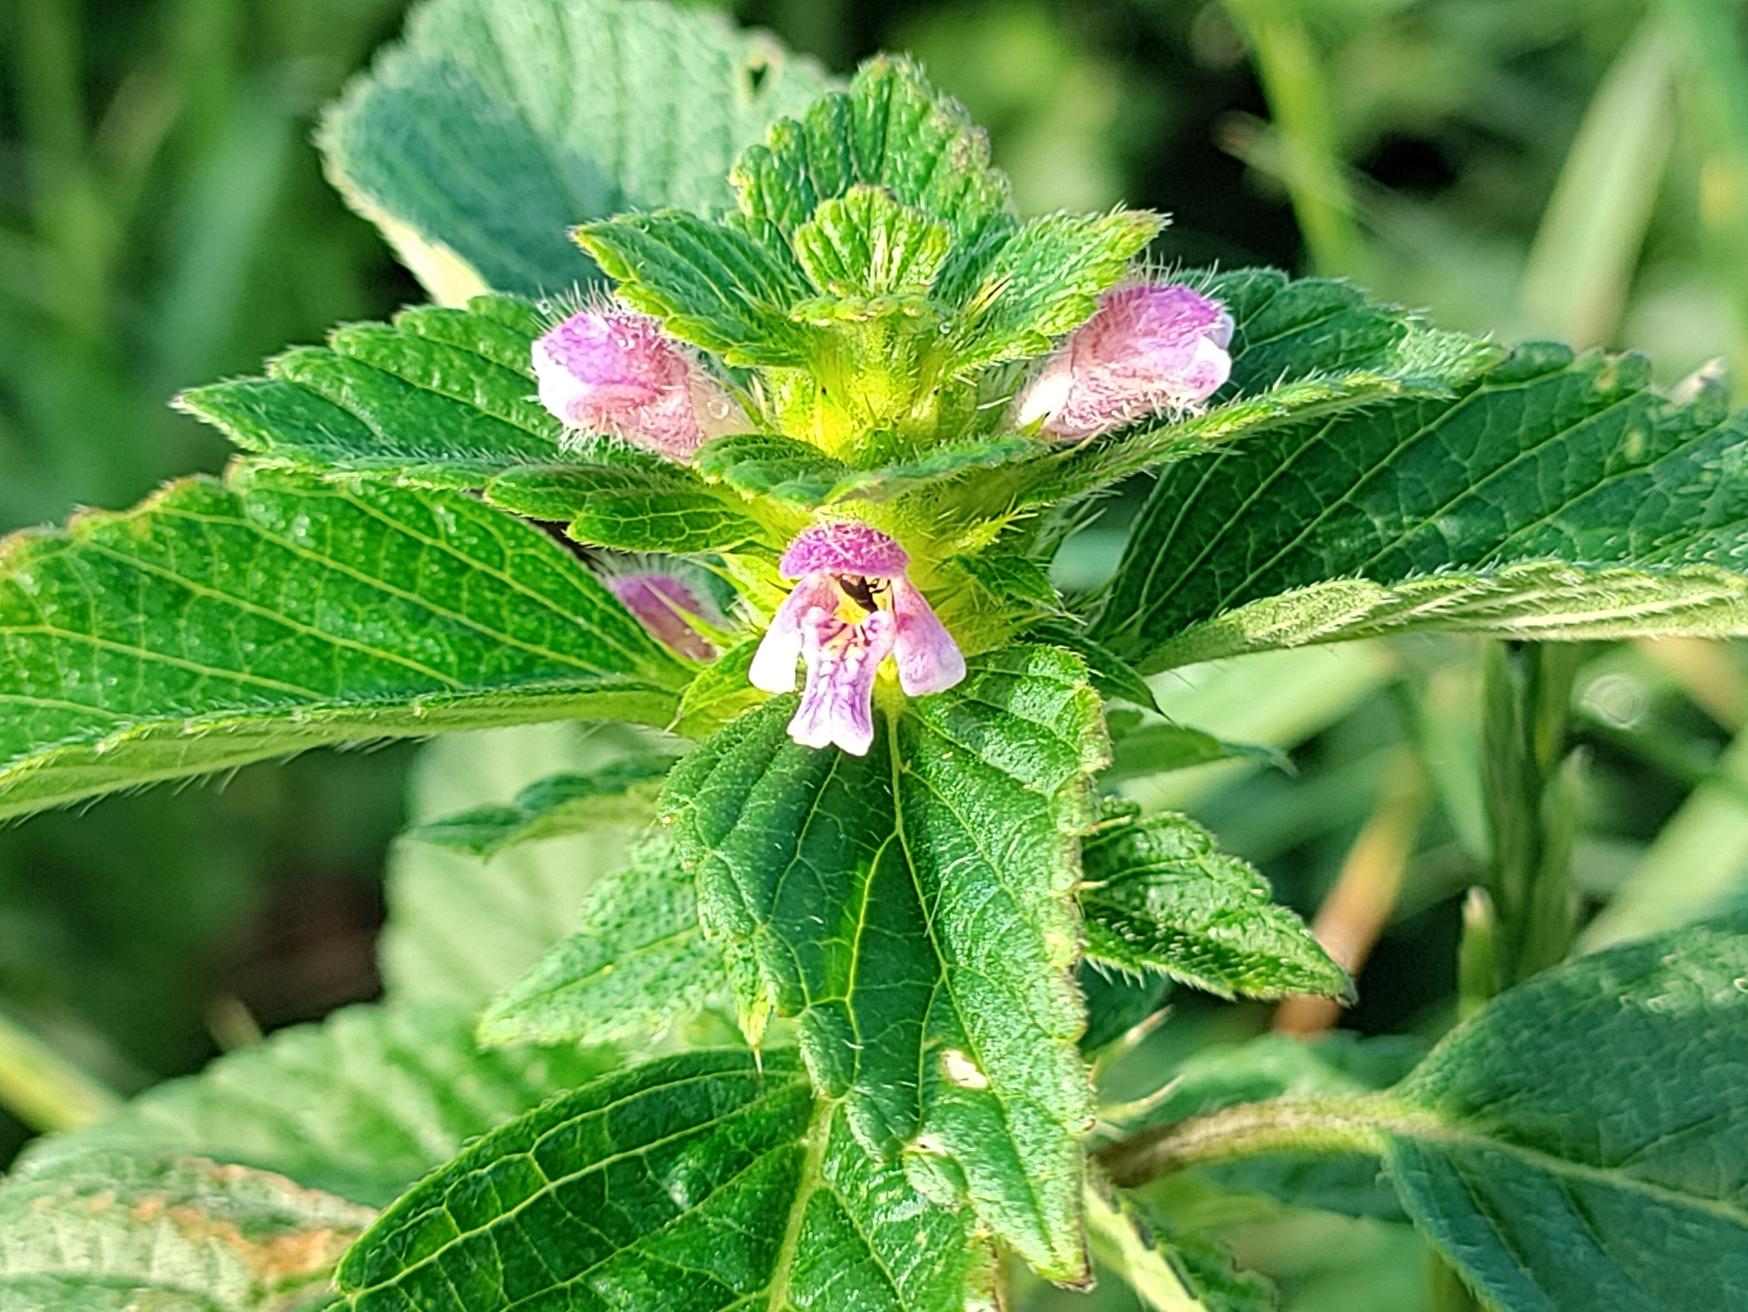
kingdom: Plantae
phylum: Tracheophyta
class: Magnoliopsida
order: Lamiales
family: Lamiaceae
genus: Galeopsis
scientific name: Galeopsis bifida
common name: Skov-hanekro
